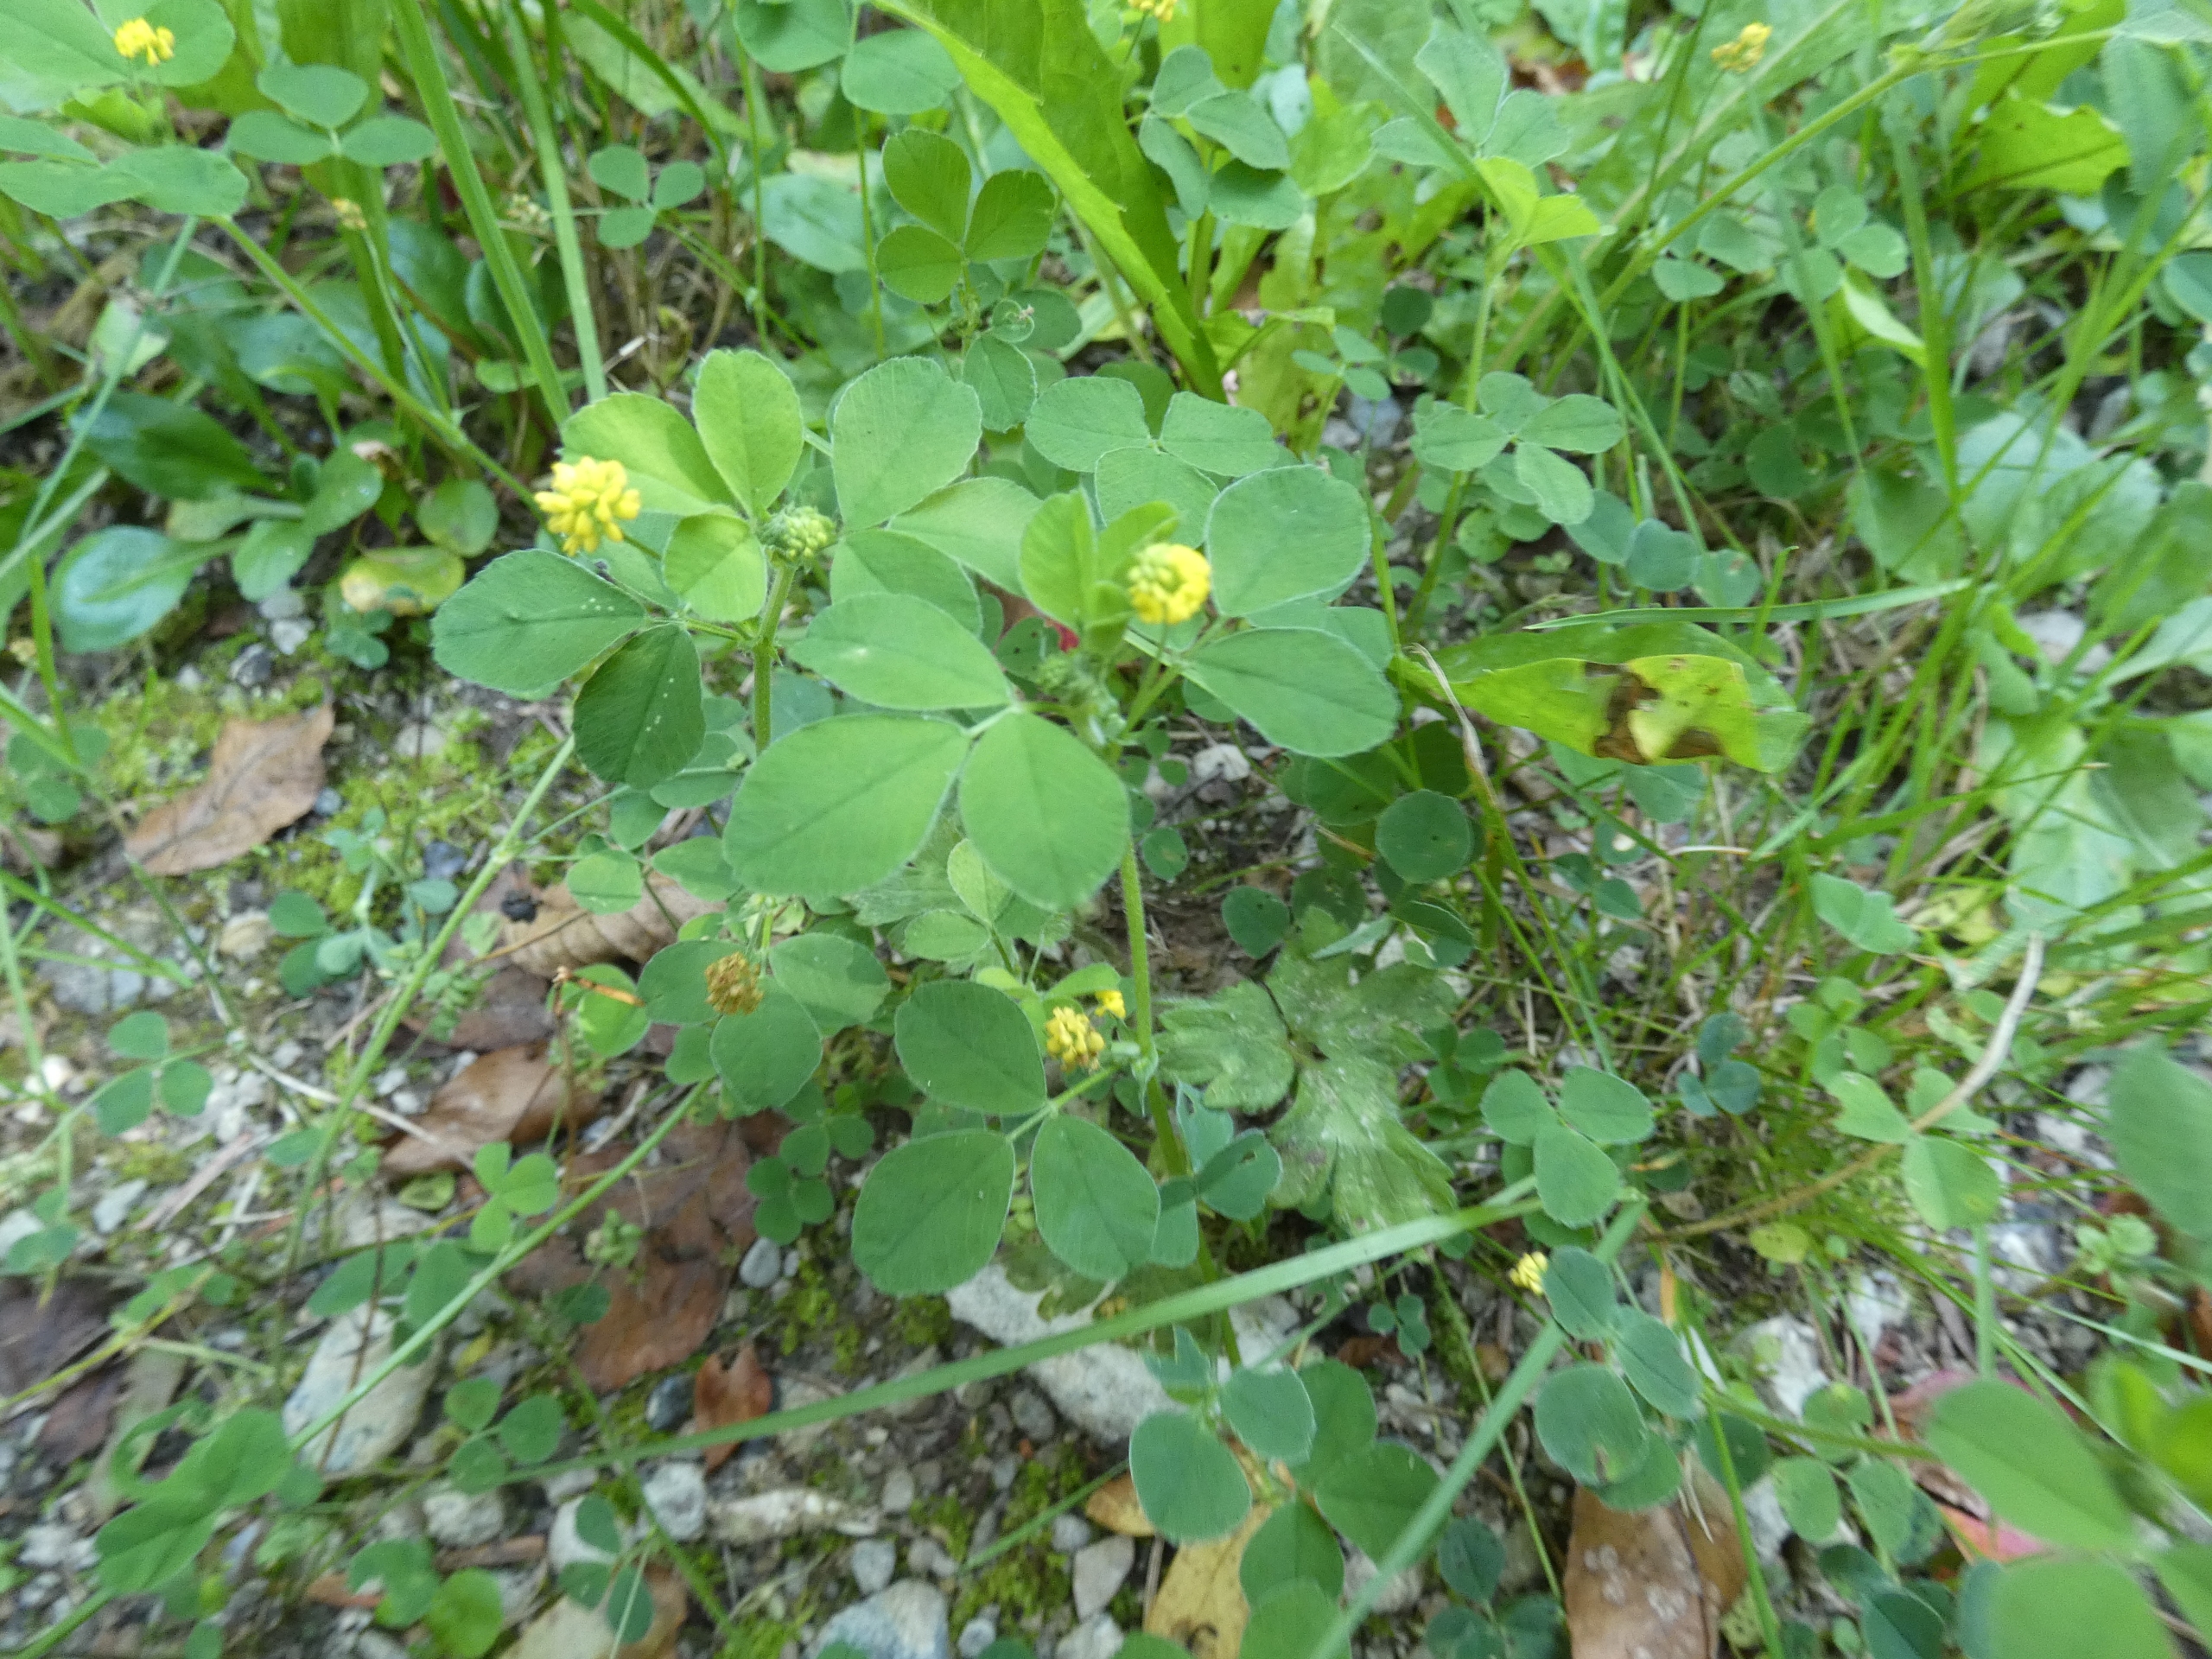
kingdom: Plantae
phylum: Tracheophyta
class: Magnoliopsida
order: Fabales
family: Fabaceae
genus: Medicago
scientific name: Medicago lupulina
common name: Humle-sneglebælg
